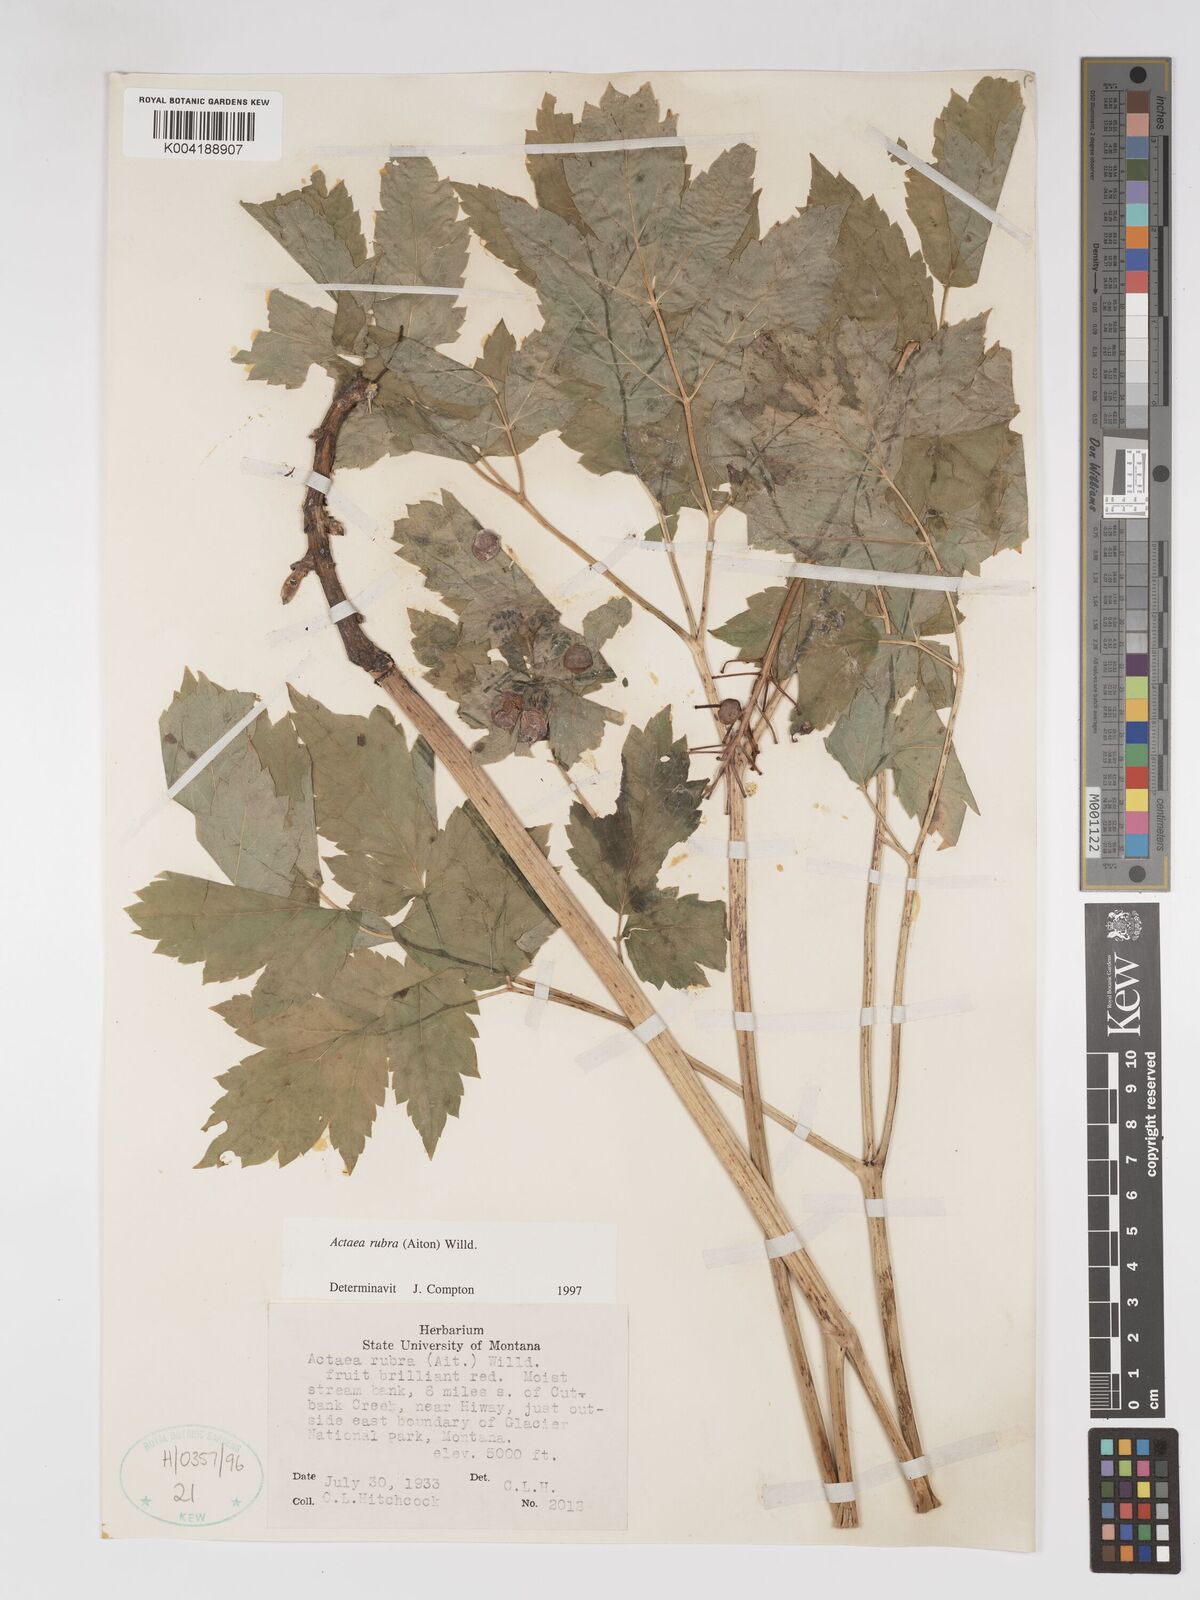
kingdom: Plantae
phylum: Tracheophyta
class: Magnoliopsida
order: Ranunculales
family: Ranunculaceae
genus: Actaea
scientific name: Actaea rubra
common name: Red baneberry
